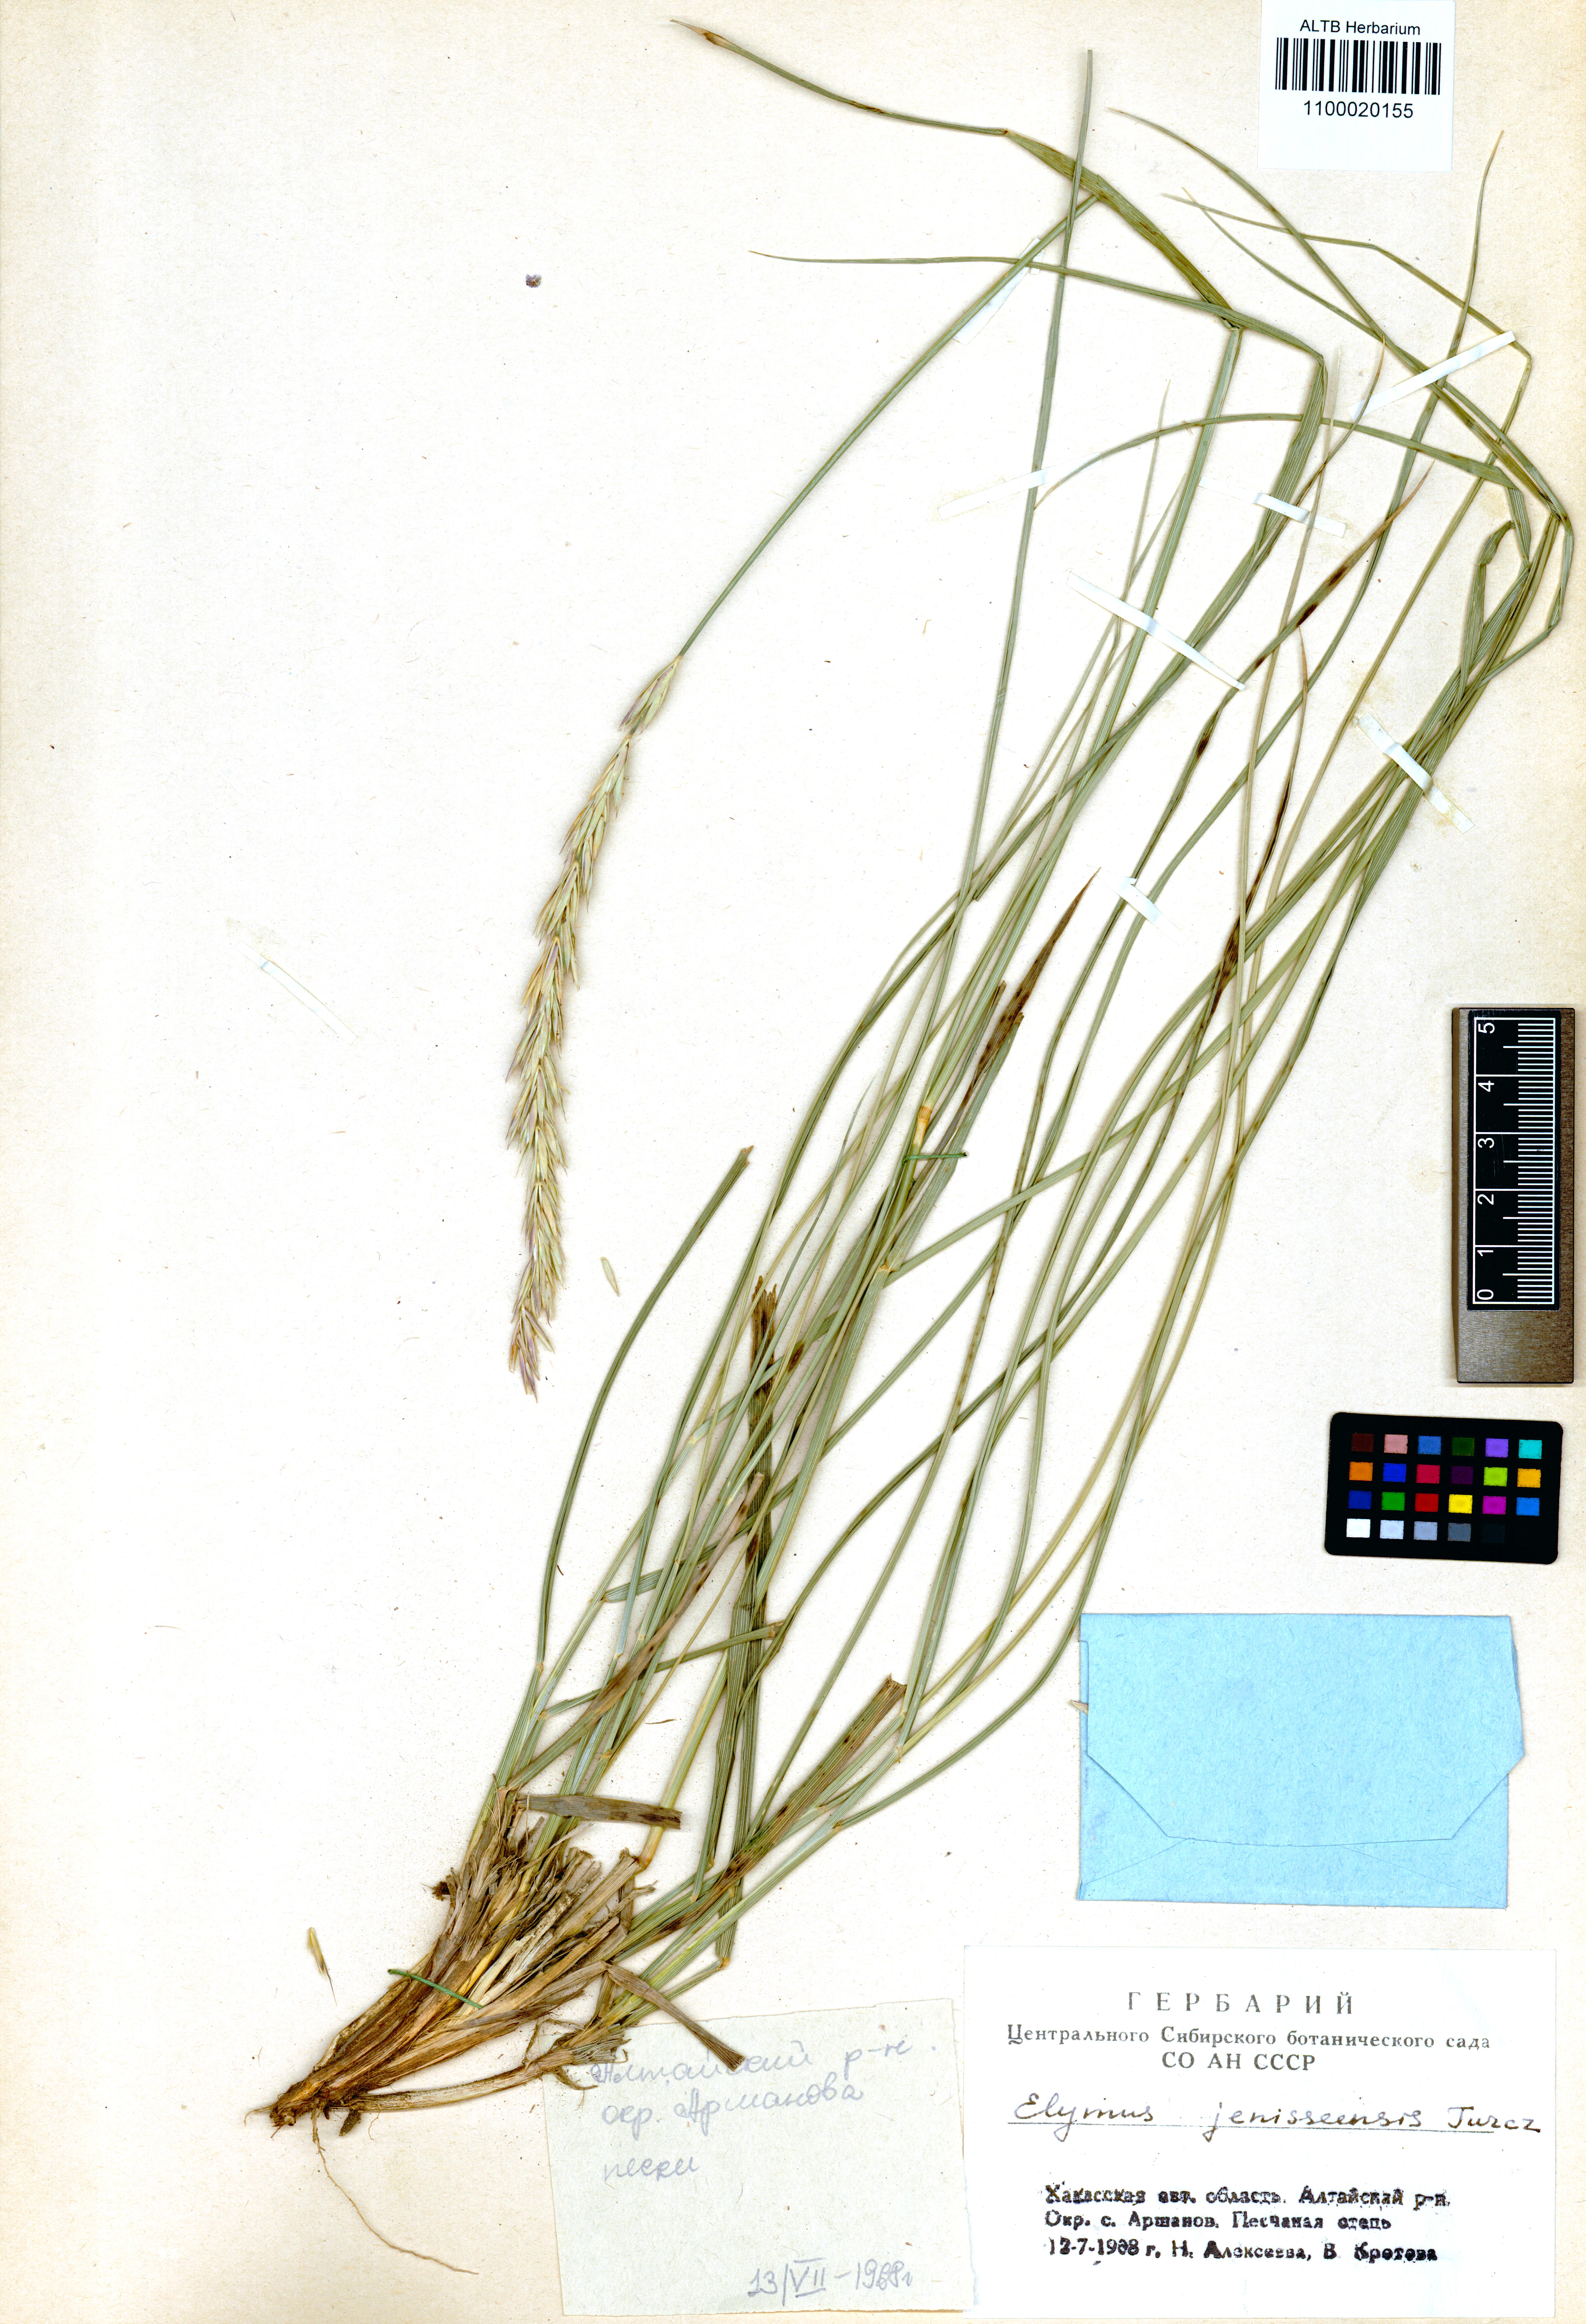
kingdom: Plantae
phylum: Tracheophyta
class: Liliopsida
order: Poales
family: Poaceae
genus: Leymus
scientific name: Leymus jenisseiensis
